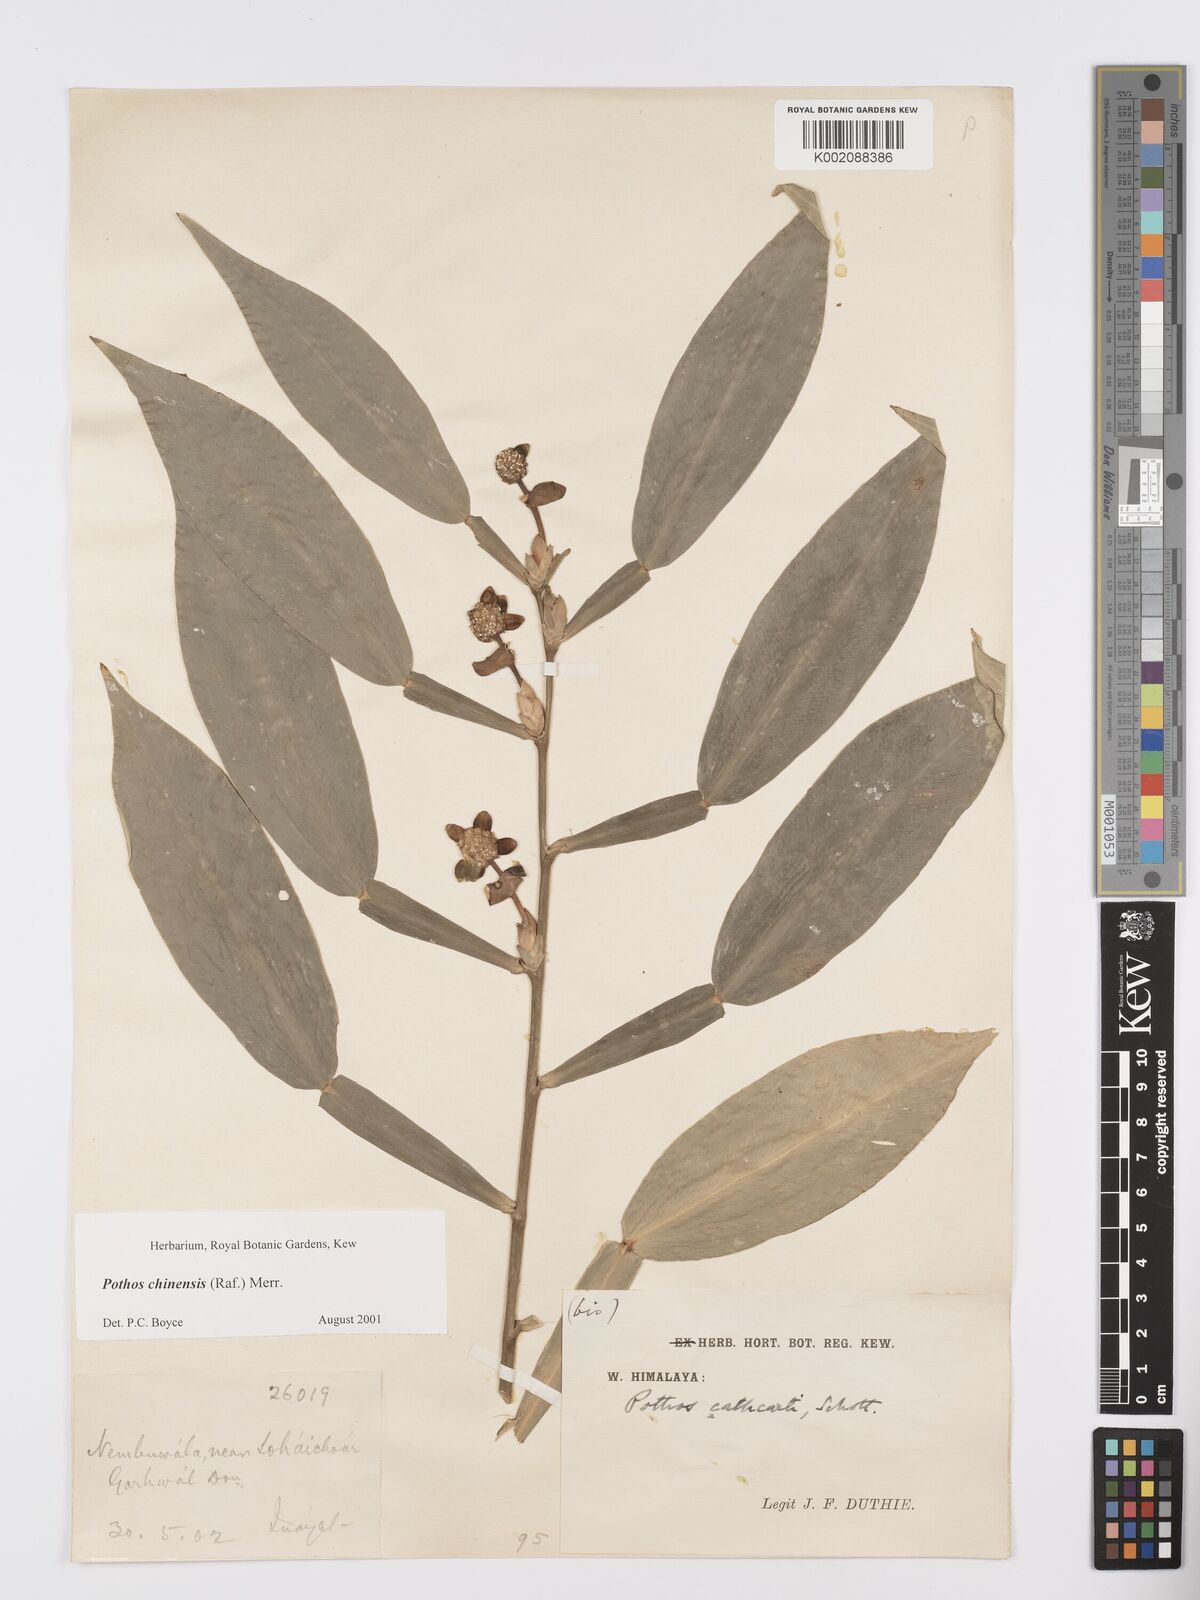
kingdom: Plantae
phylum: Tracheophyta
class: Liliopsida
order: Alismatales
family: Araceae
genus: Pothos
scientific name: Pothos chinensis
